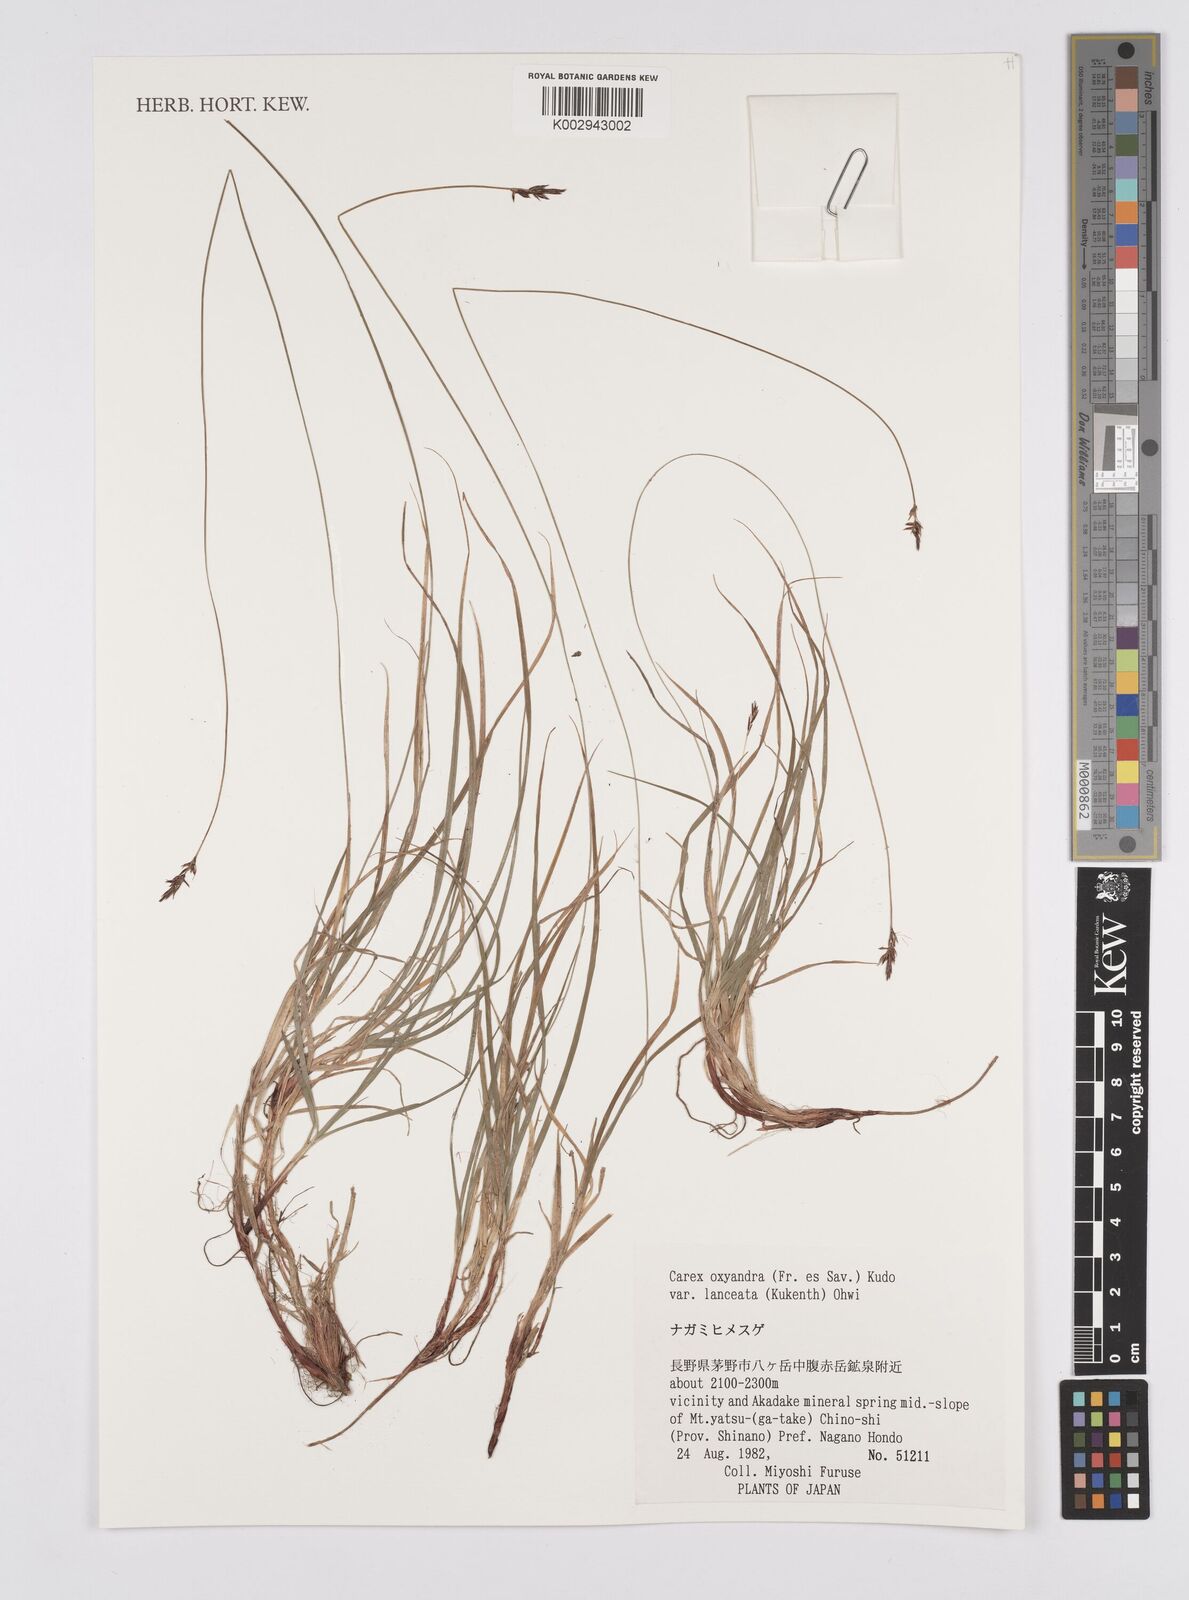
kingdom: Plantae
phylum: Tracheophyta
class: Liliopsida
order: Poales
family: Cyperaceae
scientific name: Cyperaceae
